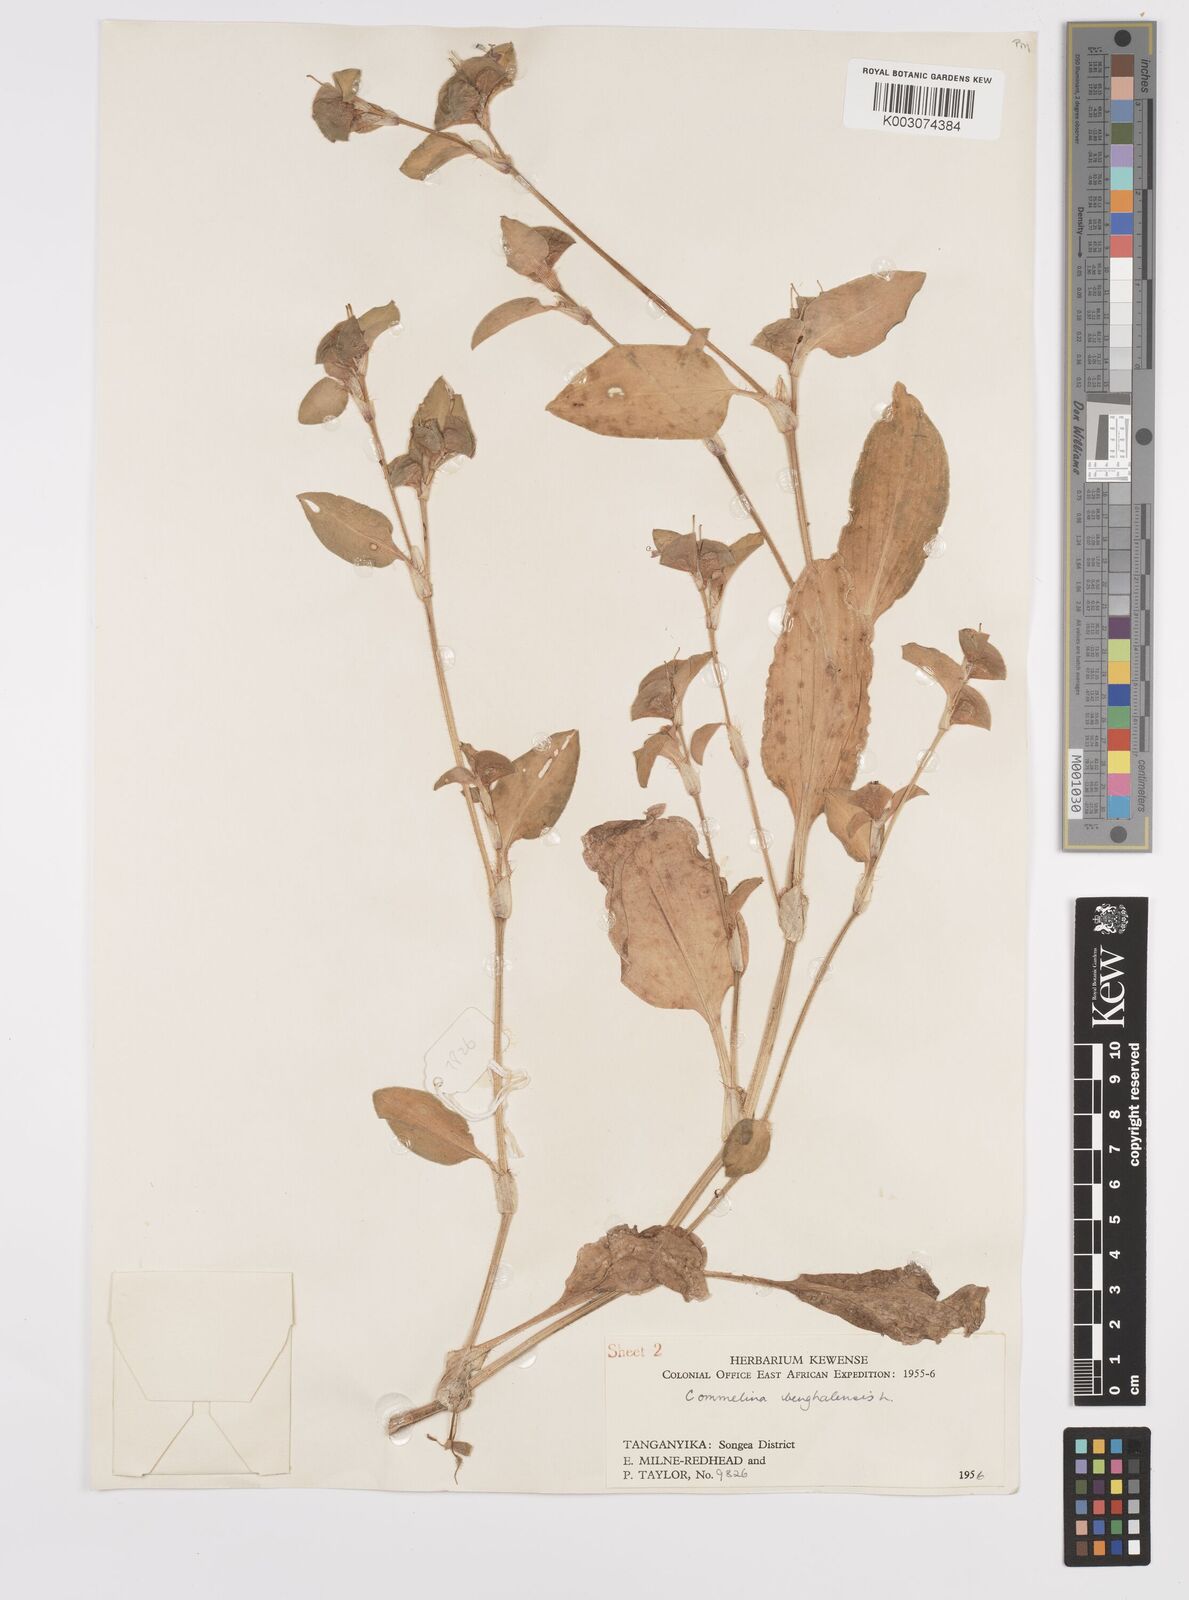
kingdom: Plantae
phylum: Tracheophyta
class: Liliopsida
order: Commelinales
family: Commelinaceae
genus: Commelina
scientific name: Commelina benghalensis
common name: Jio
